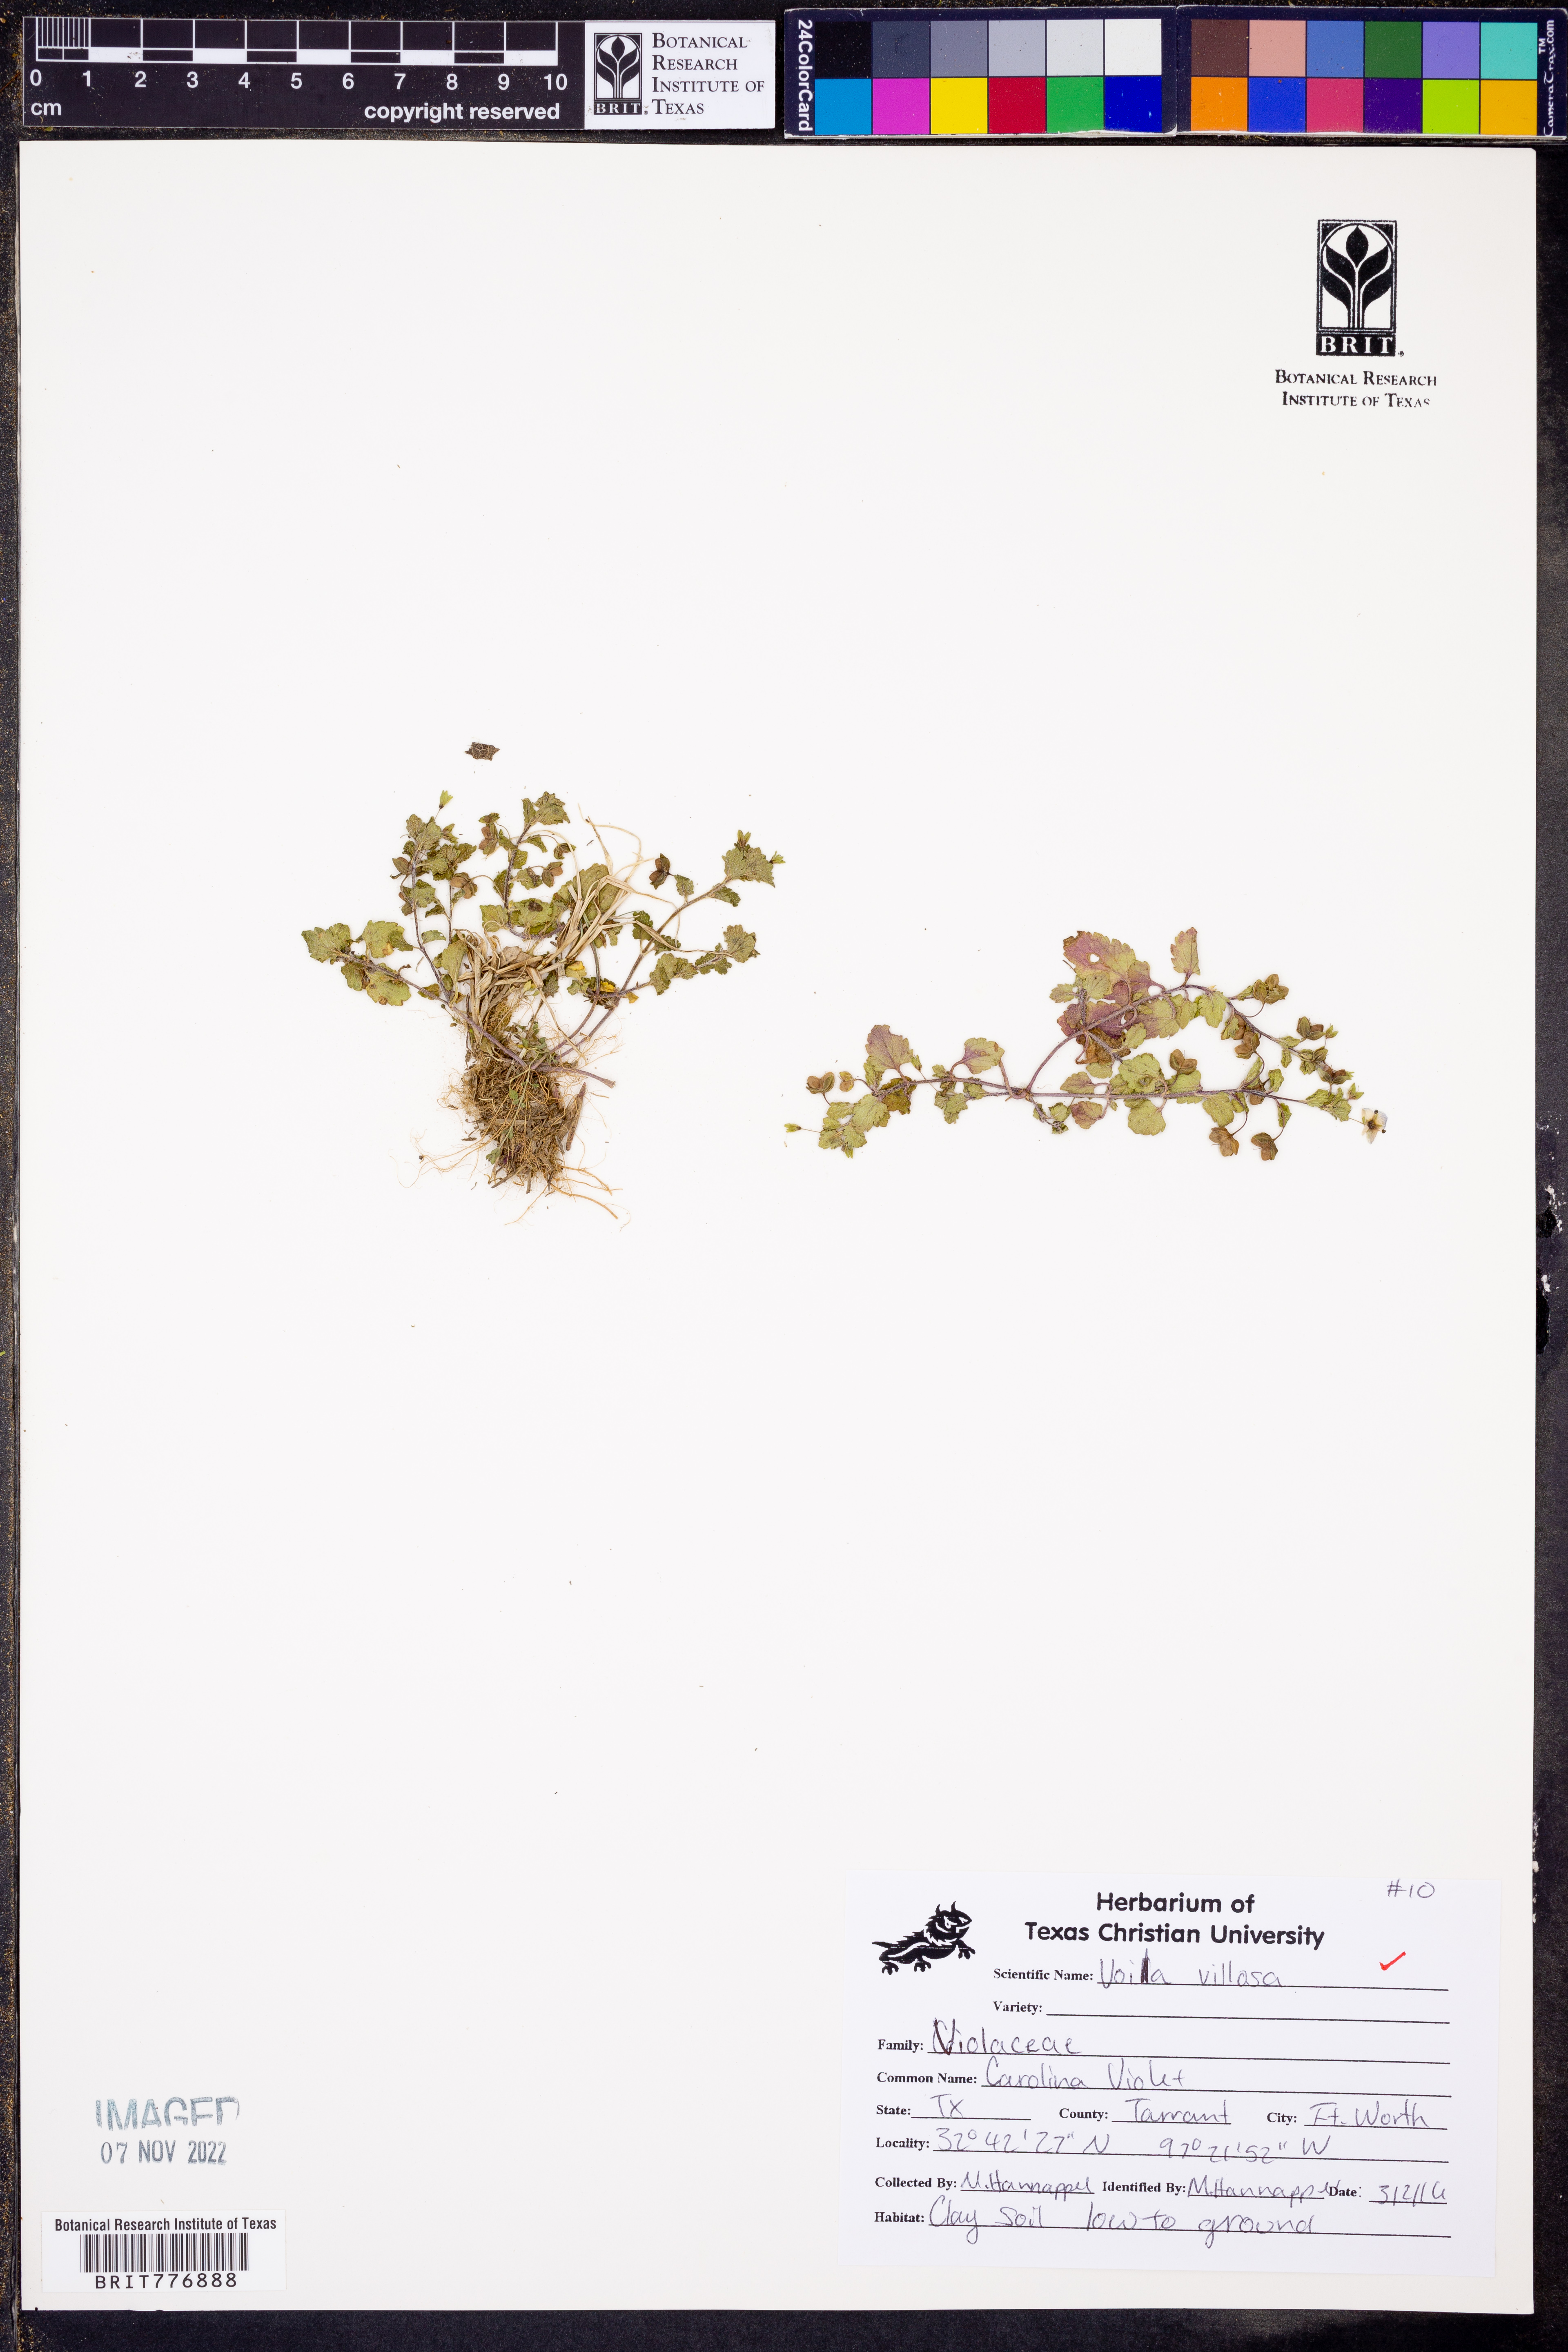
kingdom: Plantae
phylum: Tracheophyta
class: Magnoliopsida
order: Malpighiales
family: Violaceae
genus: Viola
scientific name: Viola villosa
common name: Carolina violet
